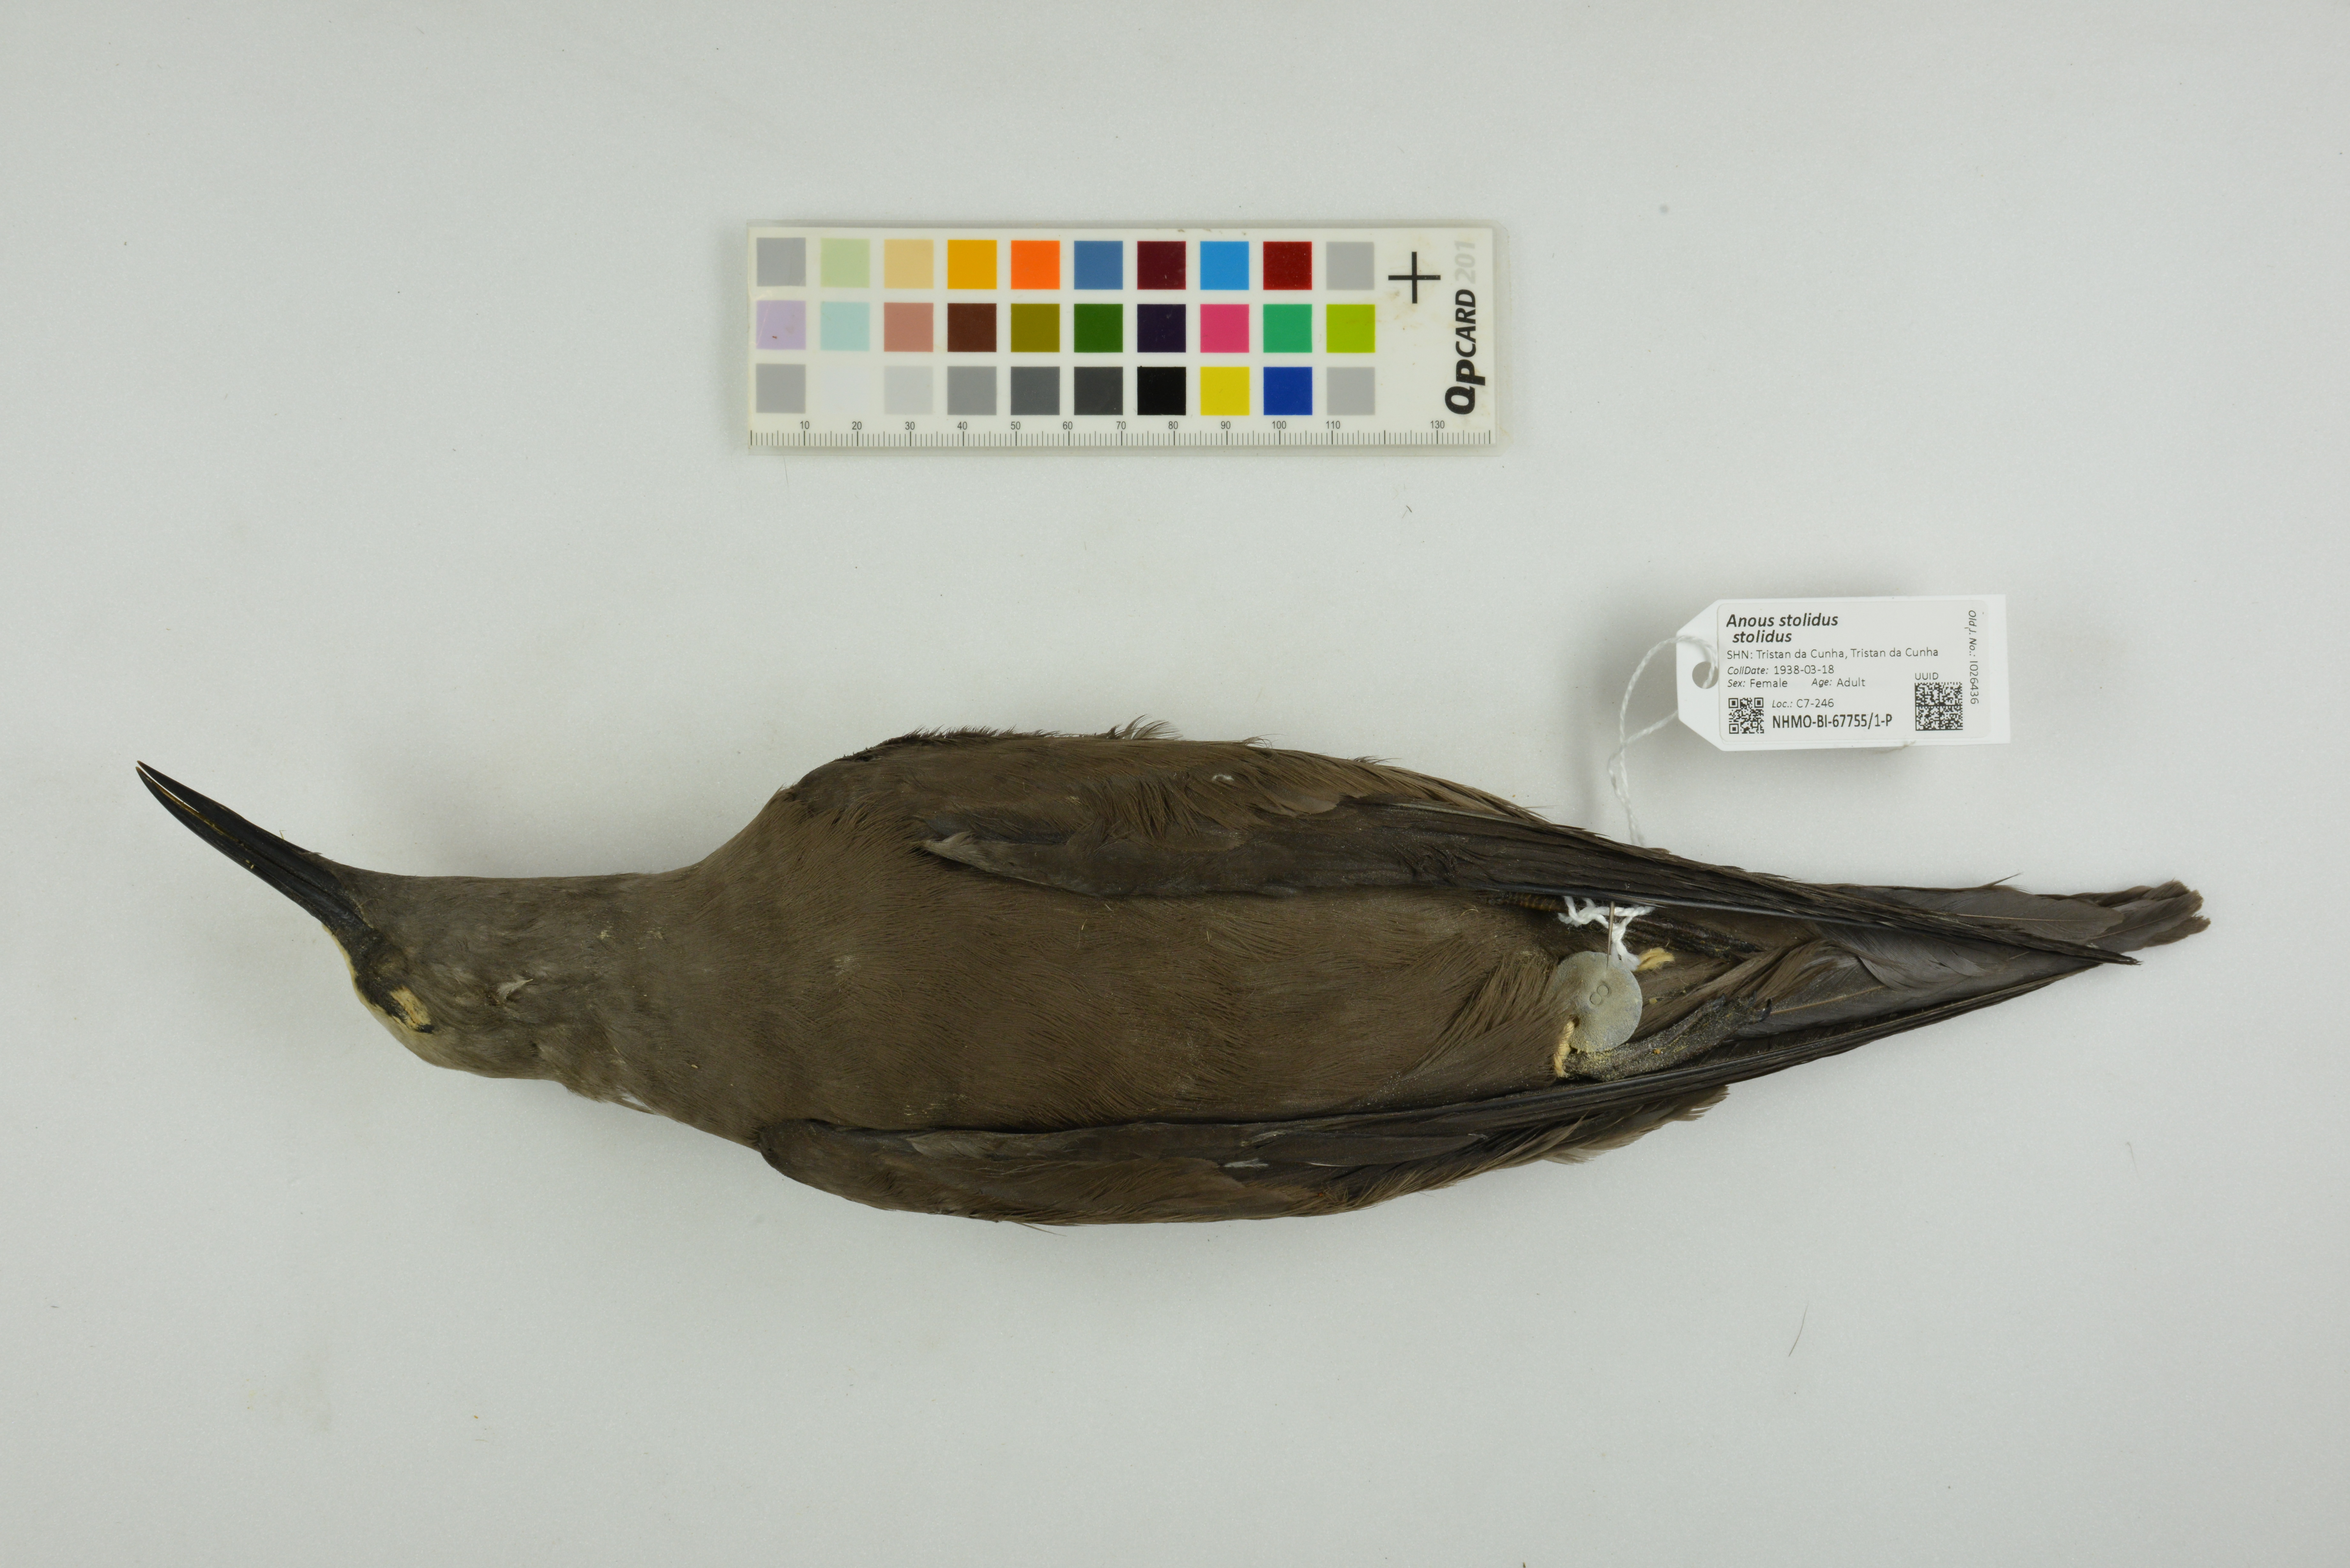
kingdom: Animalia
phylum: Chordata
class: Aves
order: Charadriiformes
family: Laridae
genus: Anous
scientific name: Anous stolidus
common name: Brown noddy
